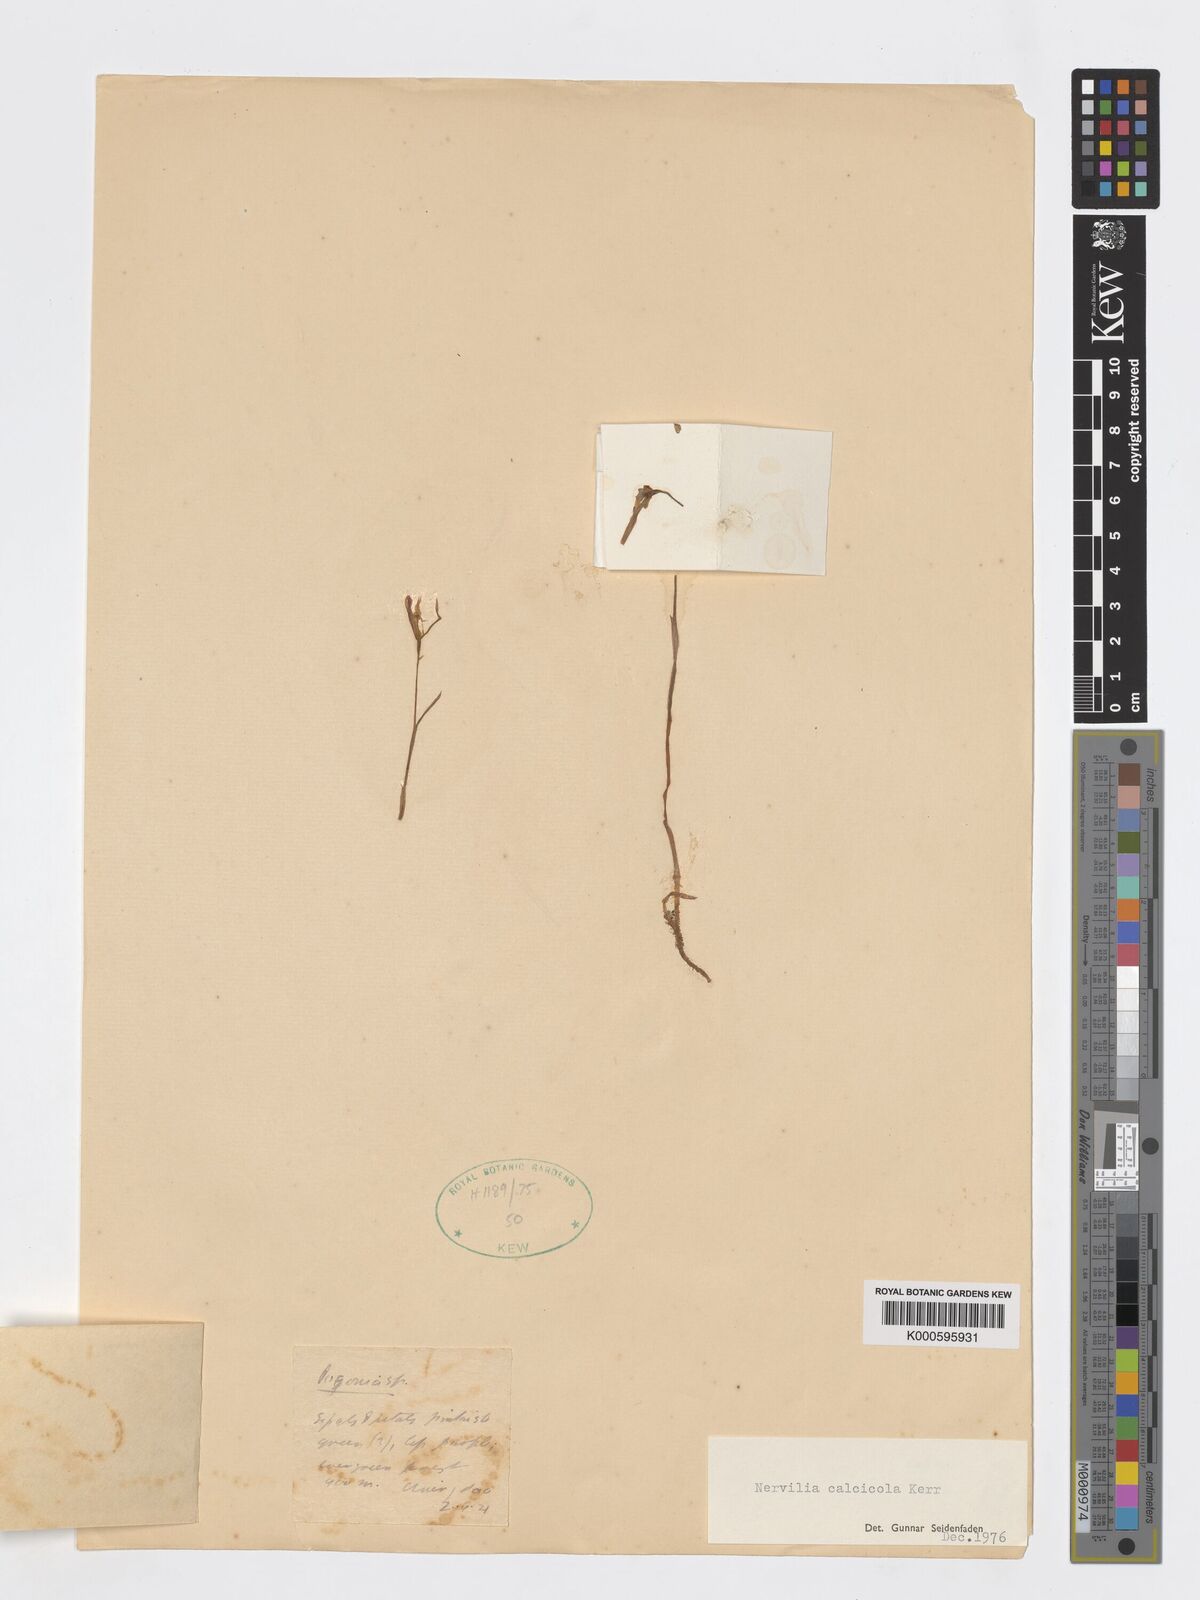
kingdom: Plantae
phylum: Tracheophyta
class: Liliopsida
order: Asparagales
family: Orchidaceae
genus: Nervilia
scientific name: Nervilia infundibulifolia
